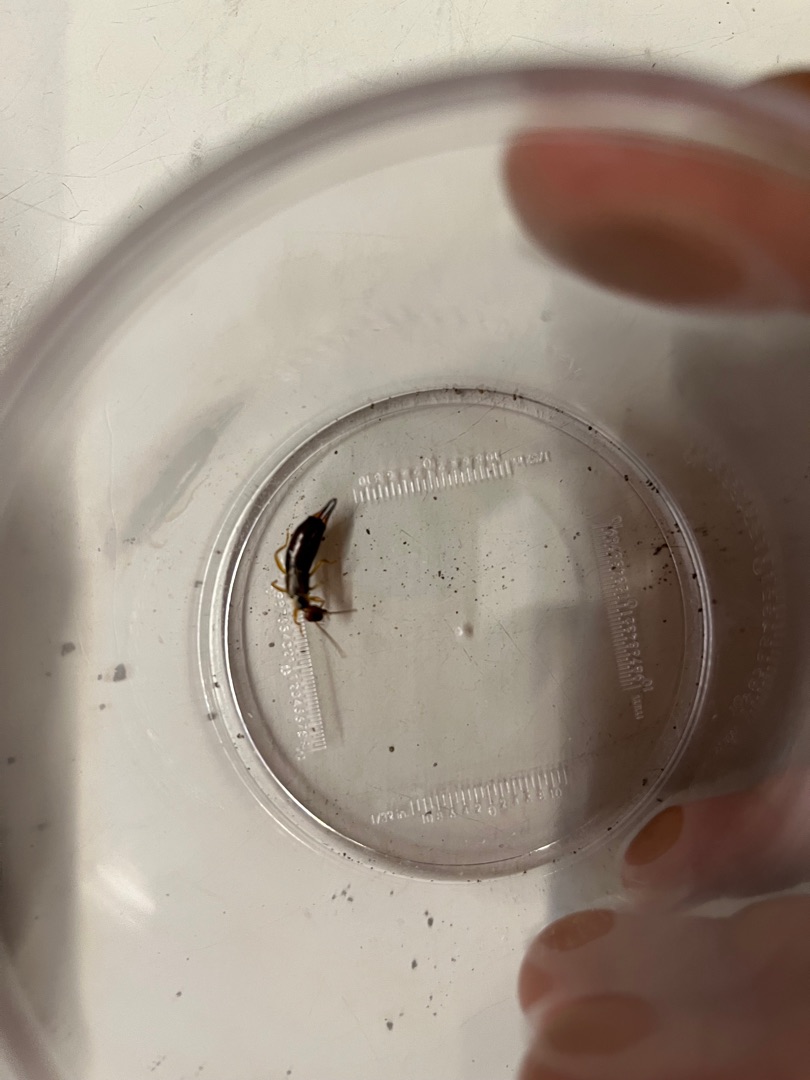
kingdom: Animalia
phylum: Arthropoda
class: Insecta
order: Dermaptera
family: Forficulidae
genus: Forficula
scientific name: Forficula auricularia
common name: Almindelig ørentvist
